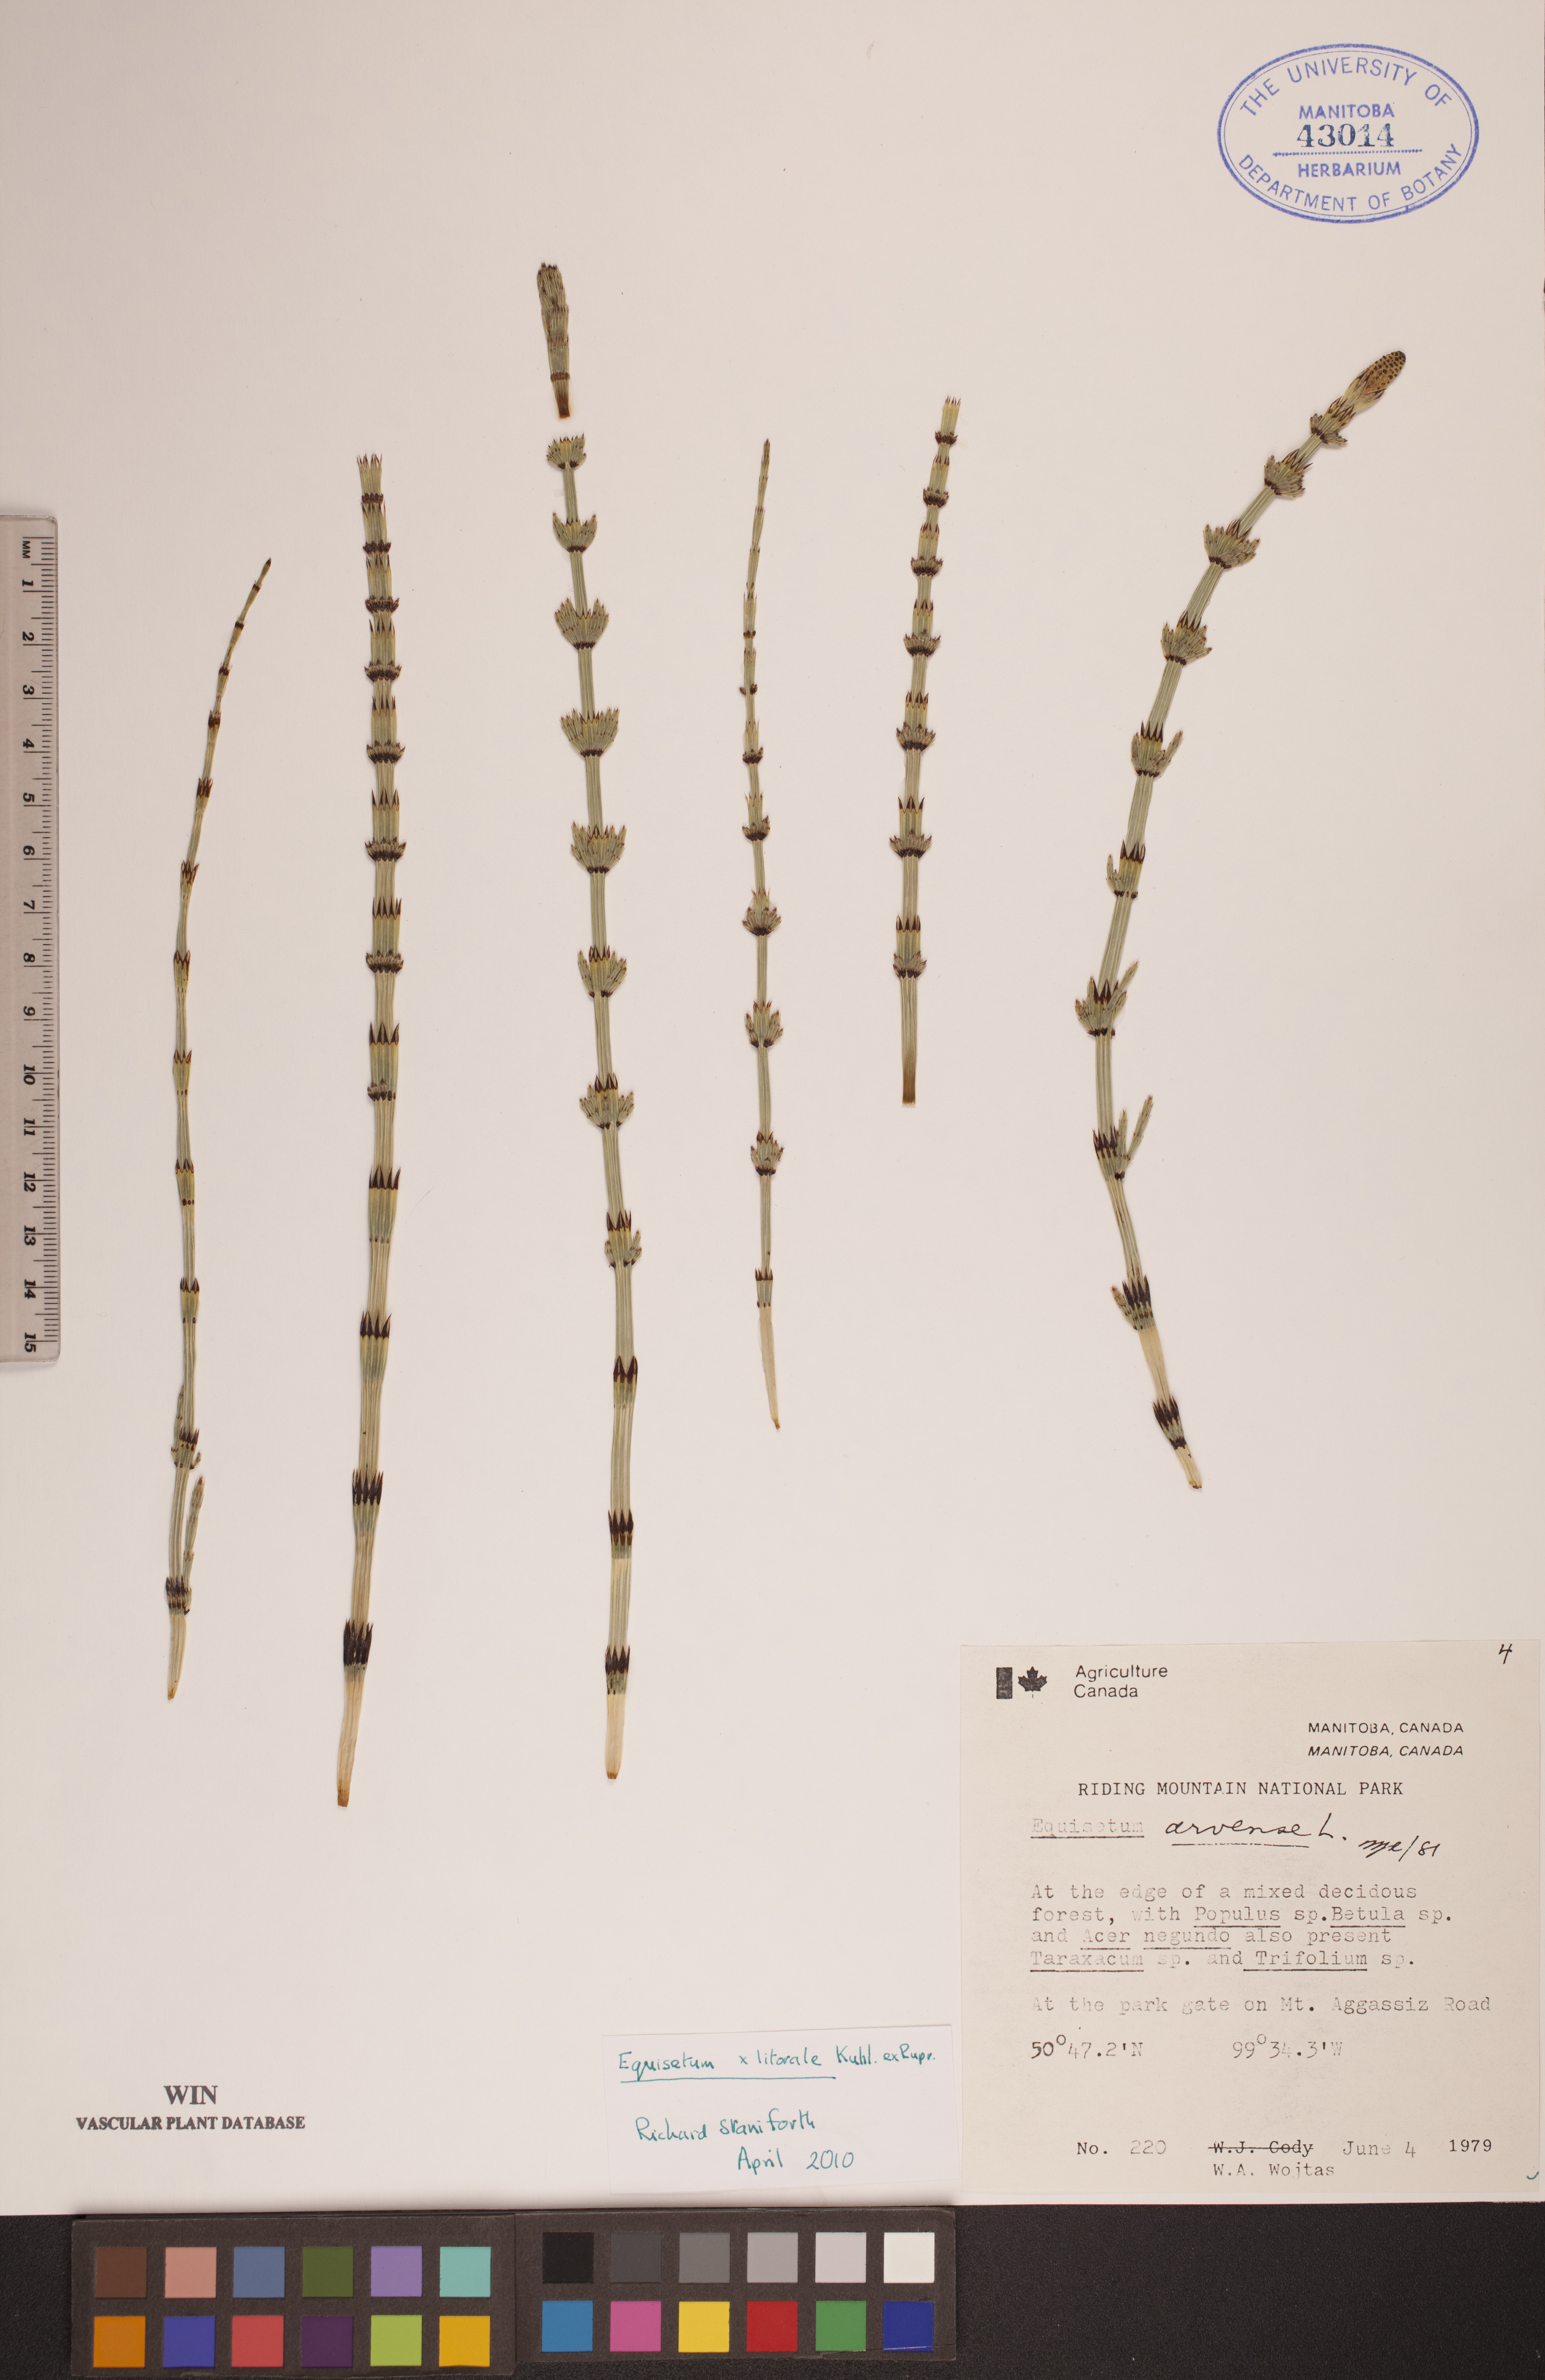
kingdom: Plantae
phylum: Tracheophyta
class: Polypodiopsida
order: Equisetales
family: Equisetaceae
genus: Equisetum
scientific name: Equisetum litorale
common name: Littoral horsetail
